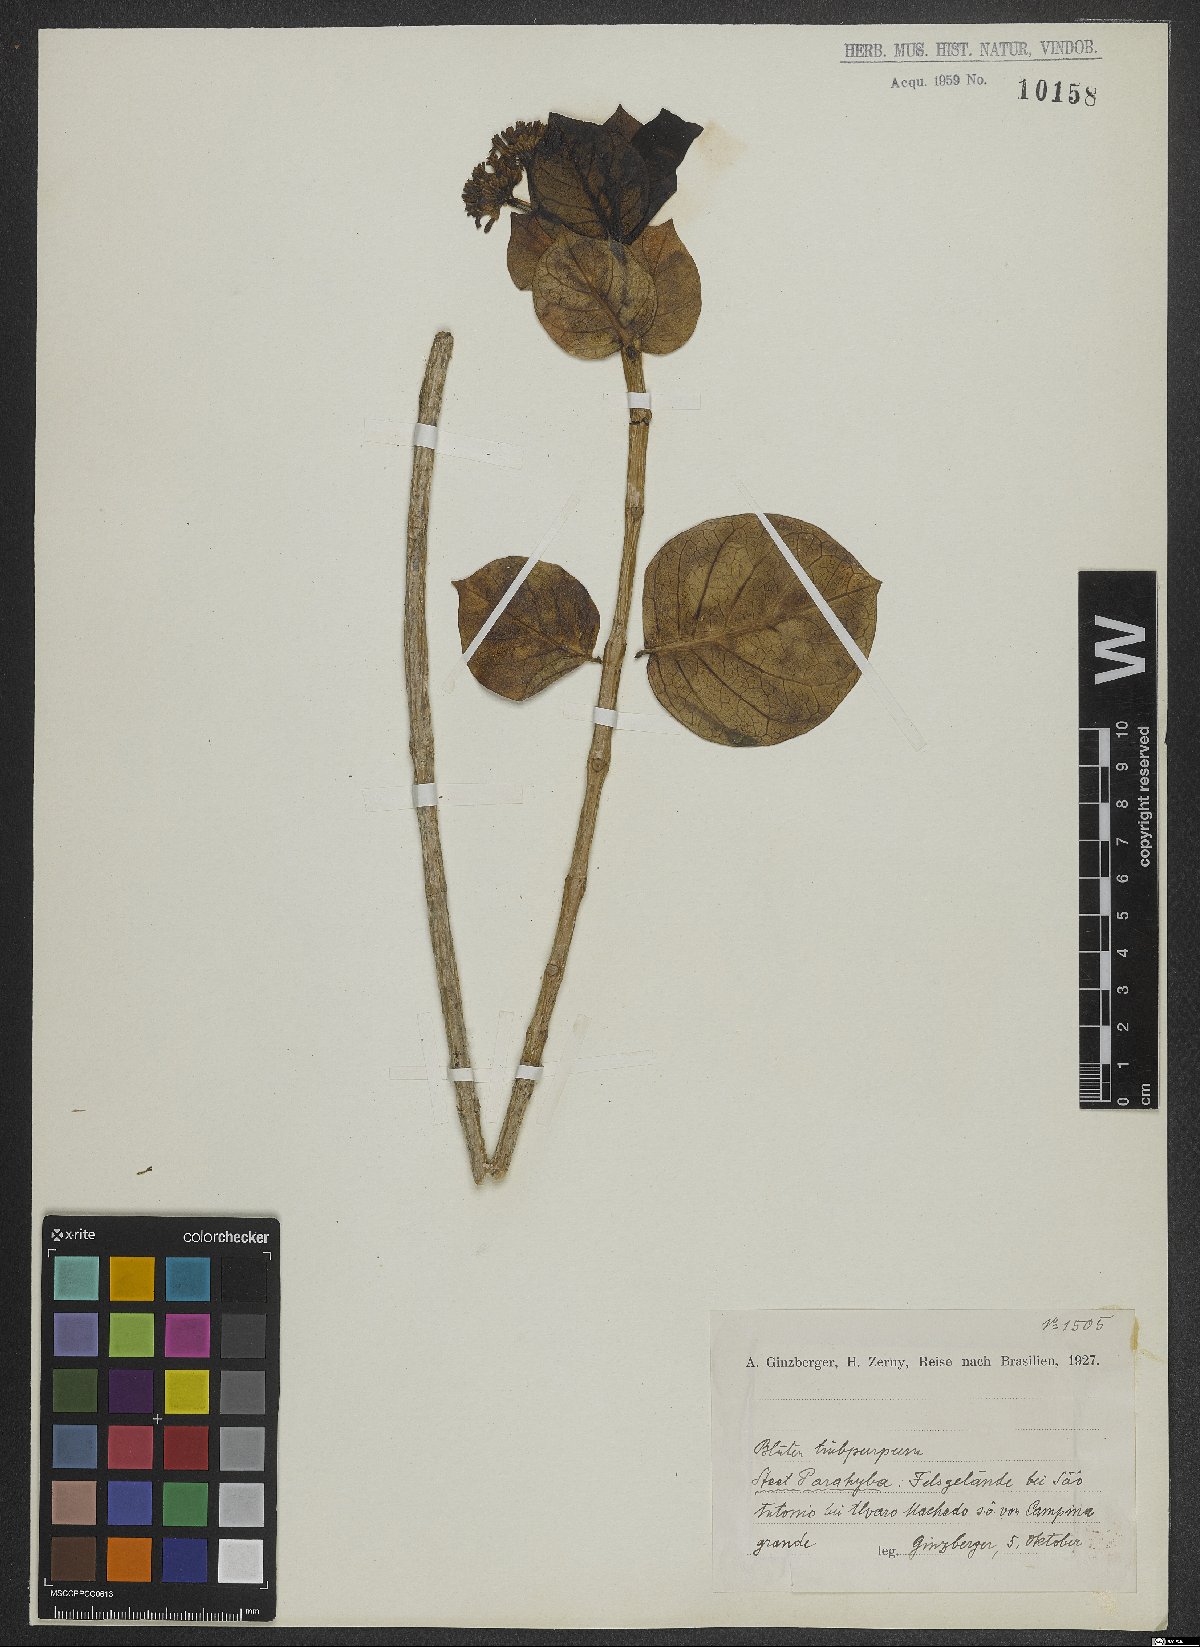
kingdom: Plantae
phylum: Tracheophyta
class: Magnoliopsida
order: Dipsacales
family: Valerianaceae
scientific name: Valerianaceae
